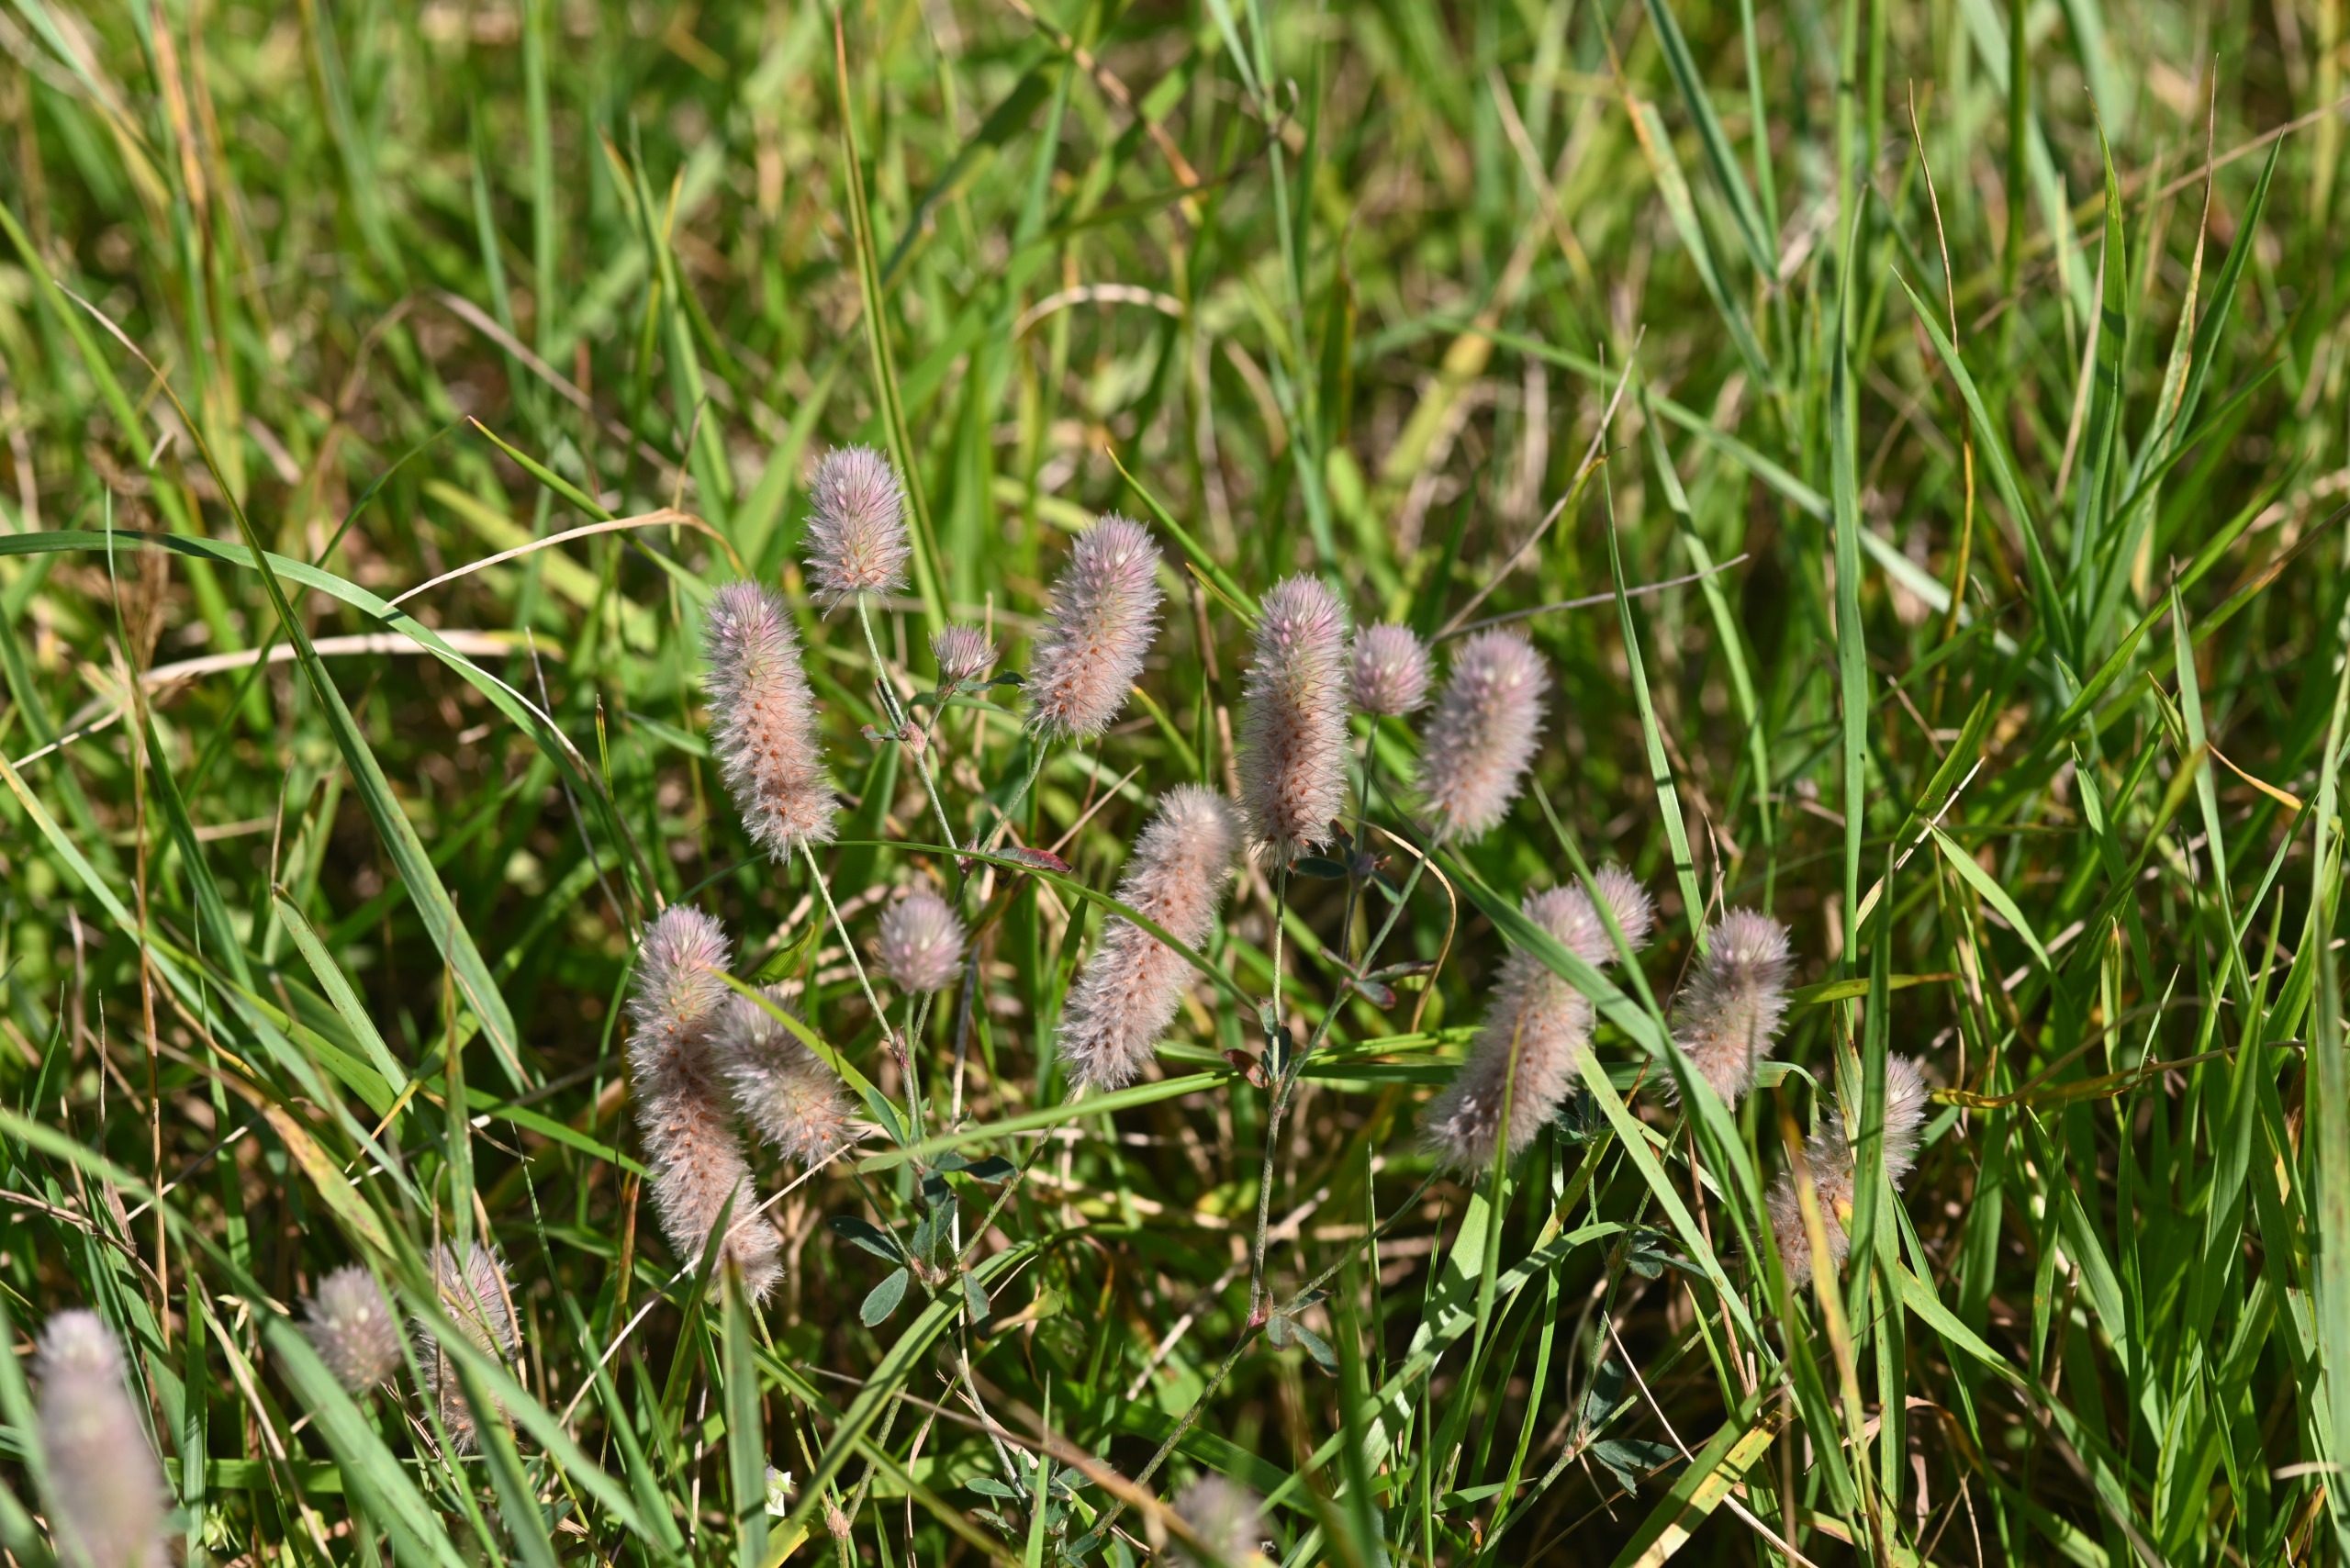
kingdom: Plantae
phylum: Tracheophyta
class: Magnoliopsida
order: Fabales
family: Fabaceae
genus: Trifolium
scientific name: Trifolium arvense
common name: Hare-kløver
